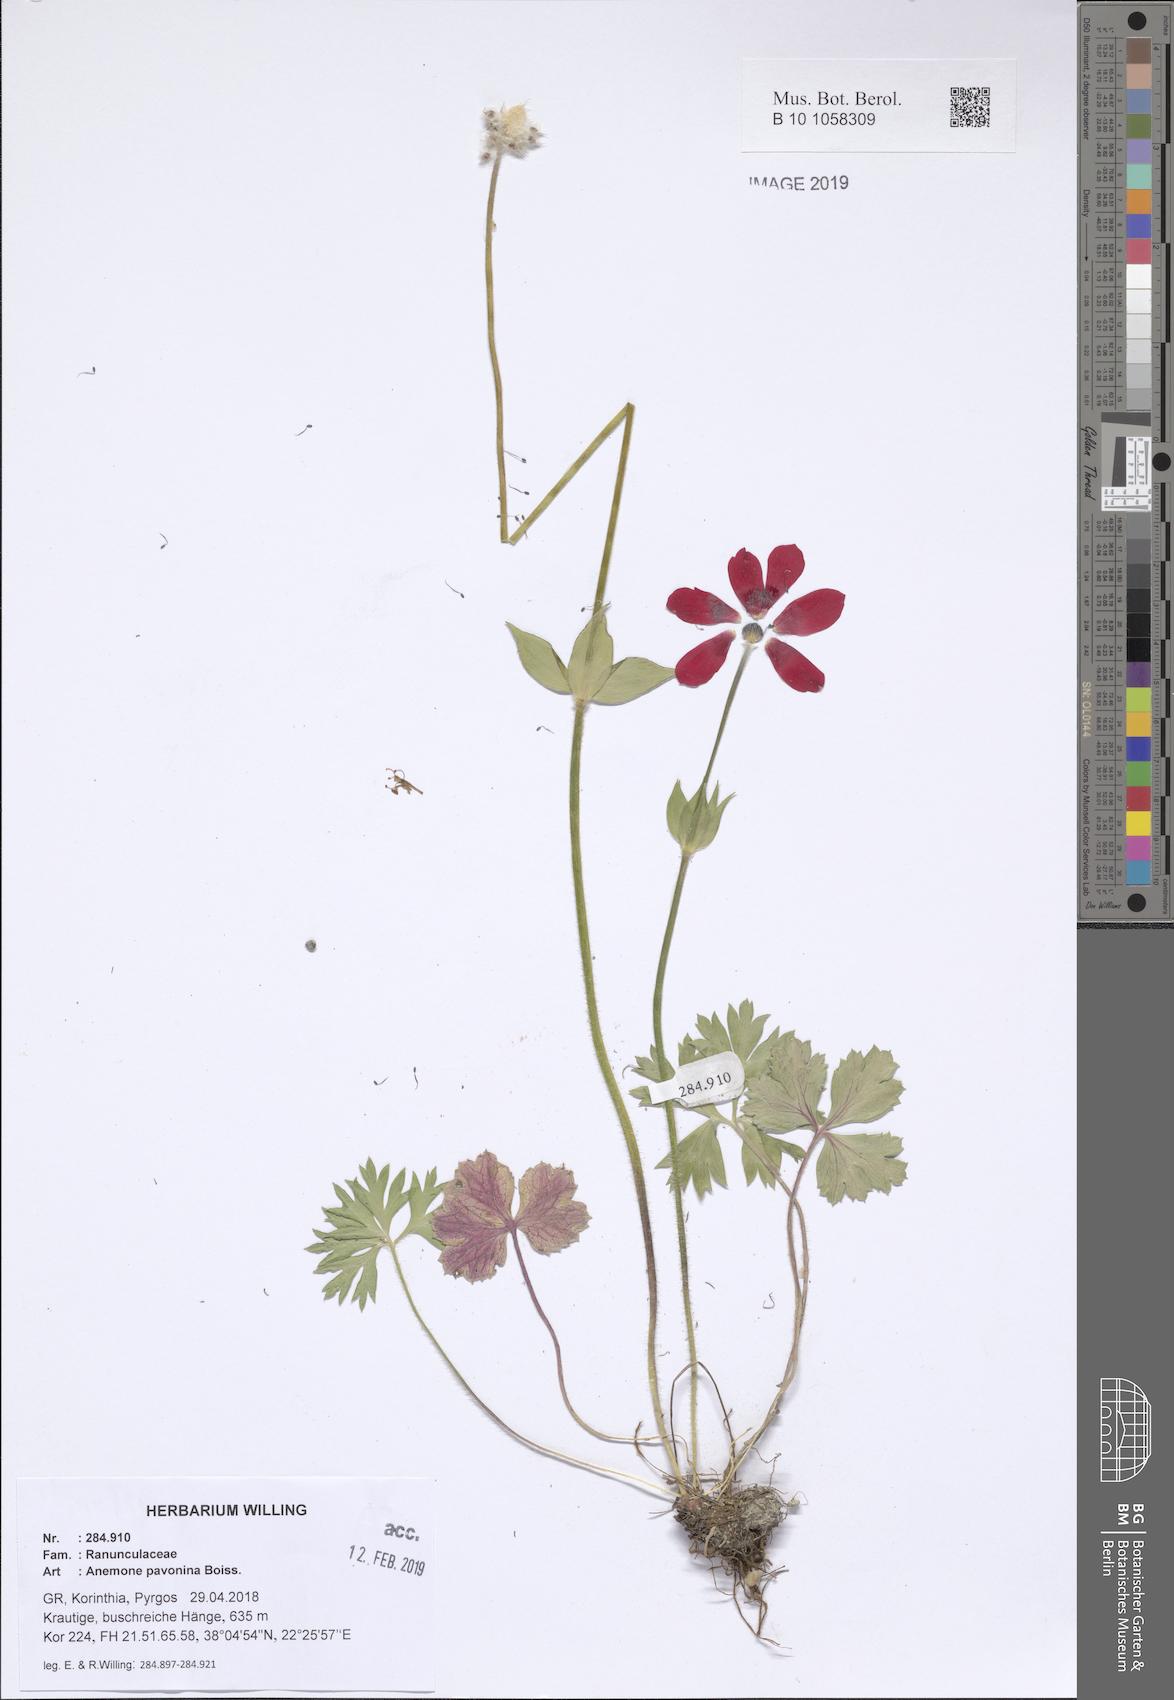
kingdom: Plantae
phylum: Tracheophyta
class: Magnoliopsida
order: Ranunculales
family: Ranunculaceae
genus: Anemone
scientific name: Anemone pavonina
